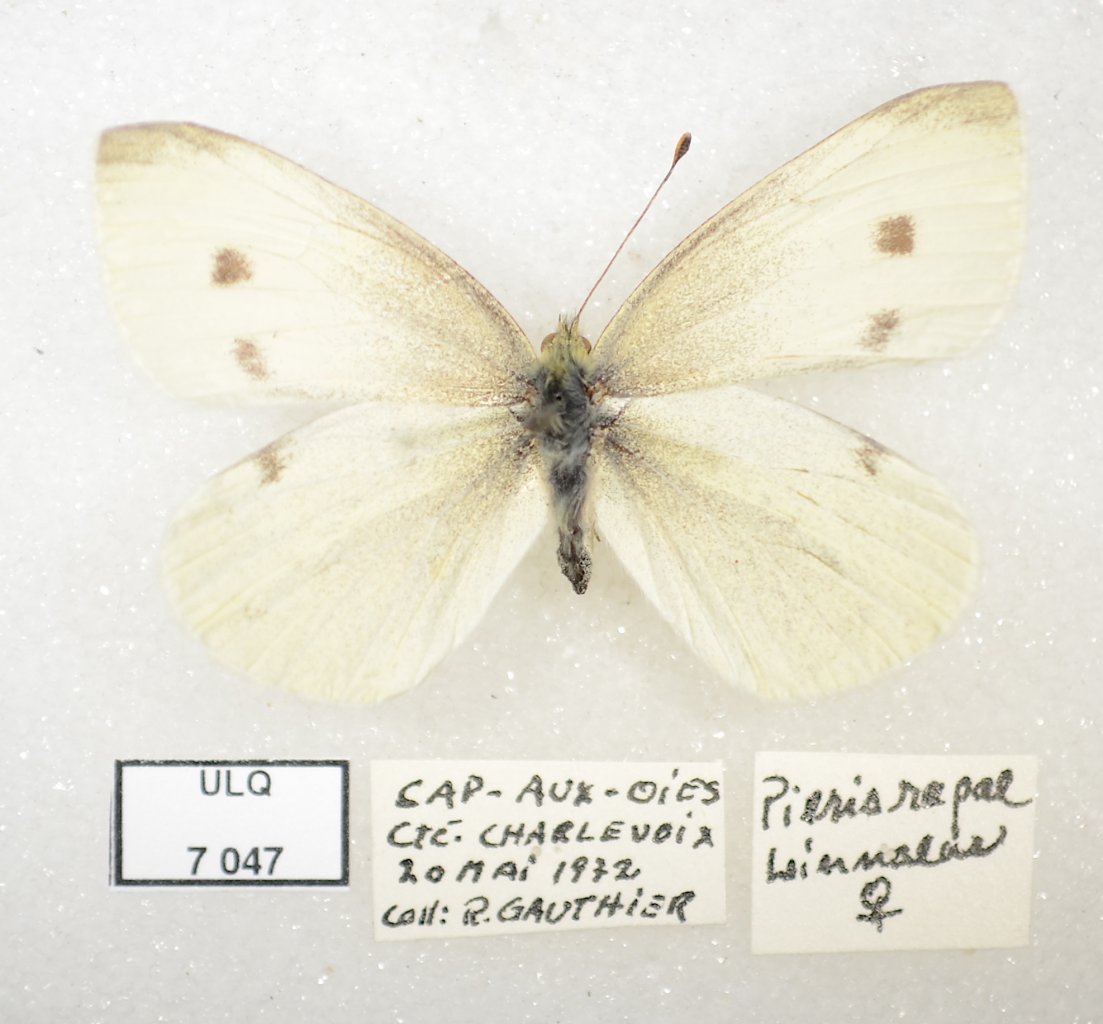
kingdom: Animalia
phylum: Arthropoda
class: Insecta
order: Lepidoptera
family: Pieridae
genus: Pieris
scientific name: Pieris rapae
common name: Cabbage White
